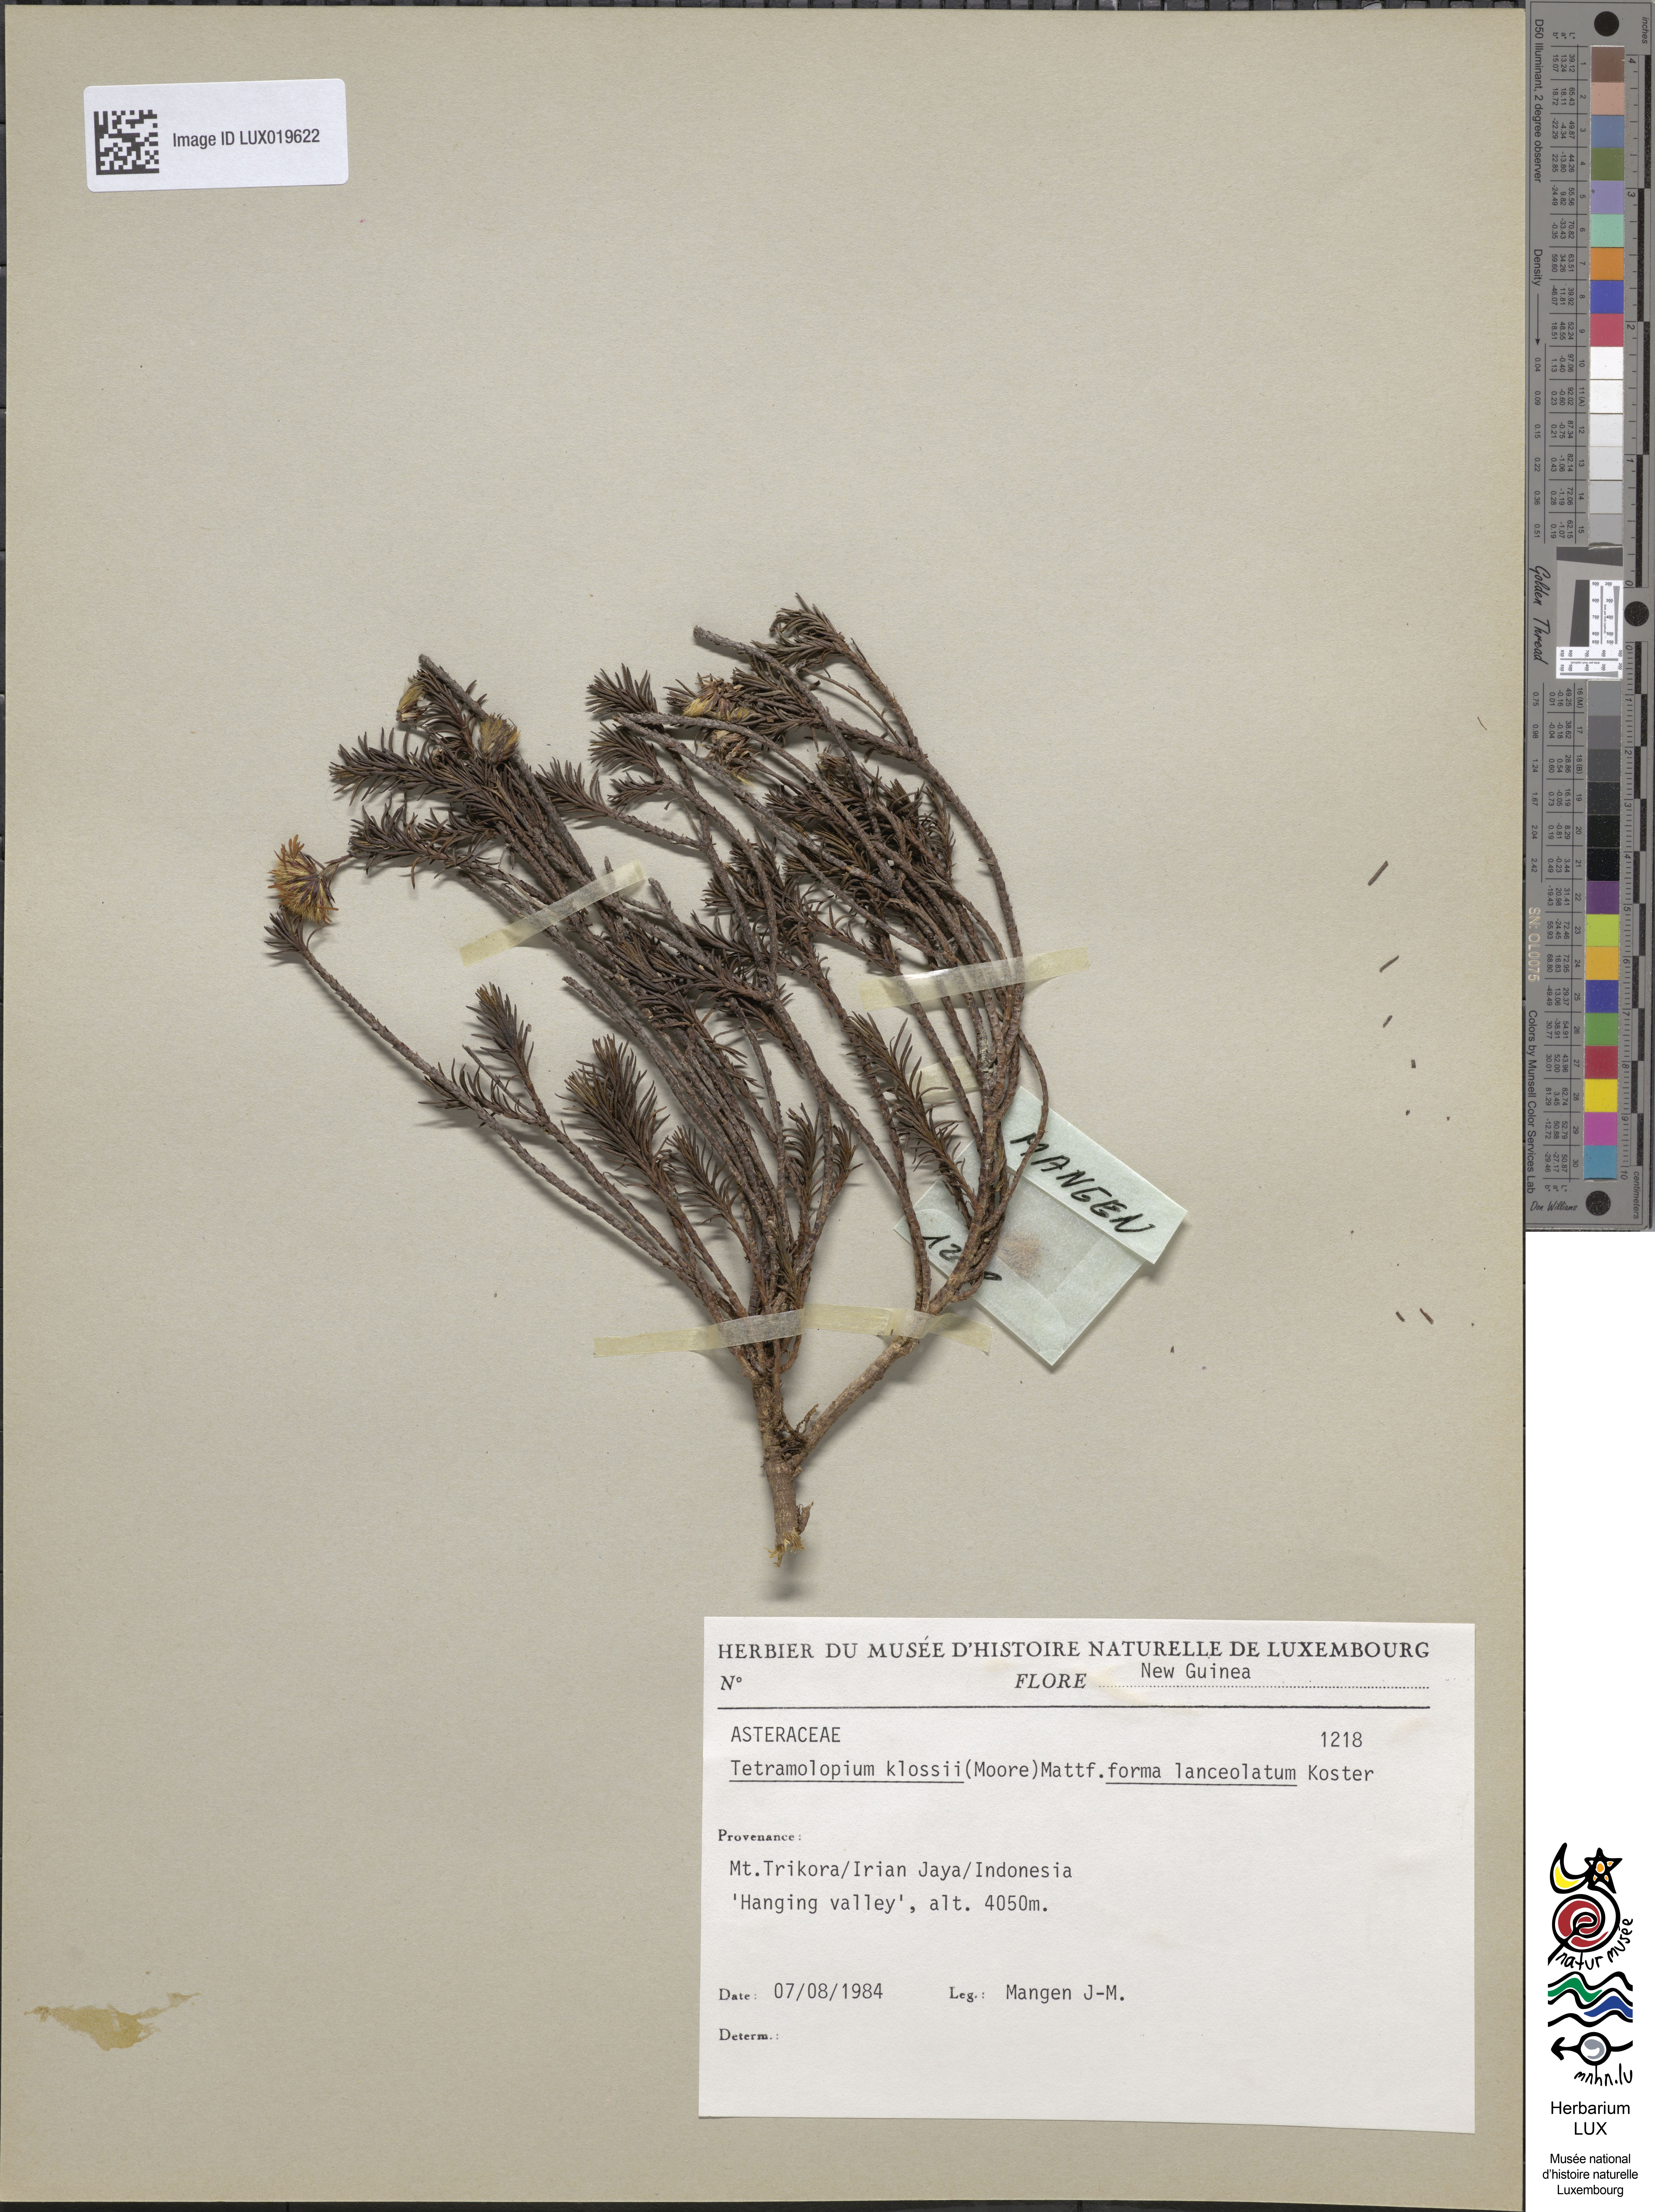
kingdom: Plantae
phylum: Tracheophyta
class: Magnoliopsida
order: Asterales
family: Asteraceae
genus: Tetramolopium
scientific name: Tetramolopium klossii
